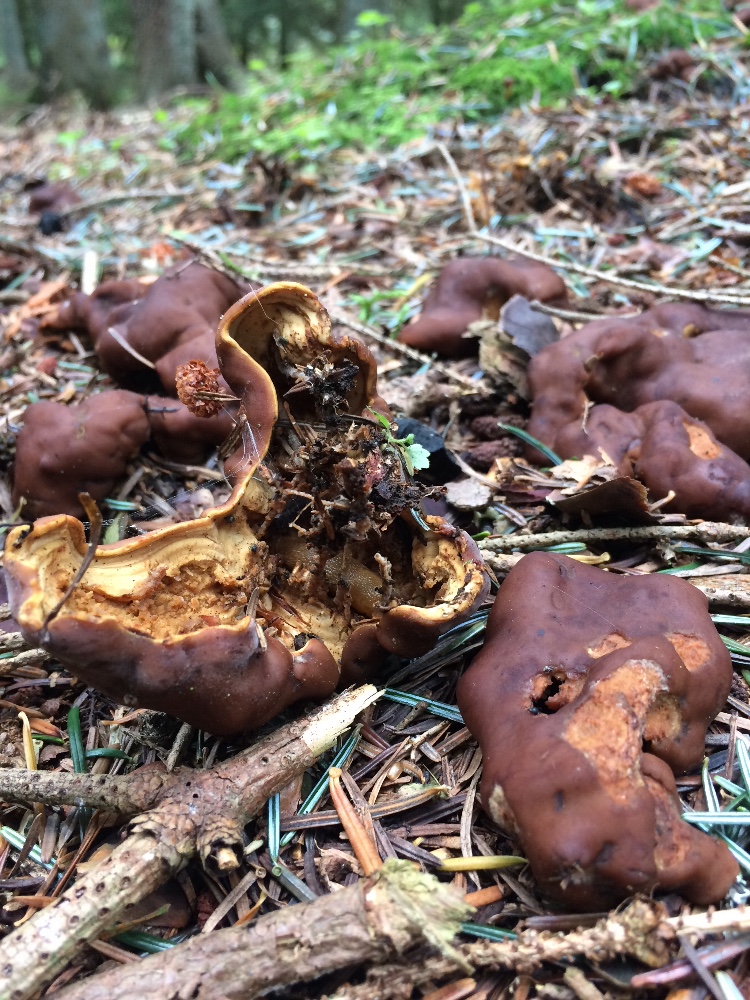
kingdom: Fungi
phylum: Ascomycota
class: Pezizomycetes
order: Pezizales
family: Rhizinaceae
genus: Rhizina
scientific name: Rhizina undulata
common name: rodmorkel
